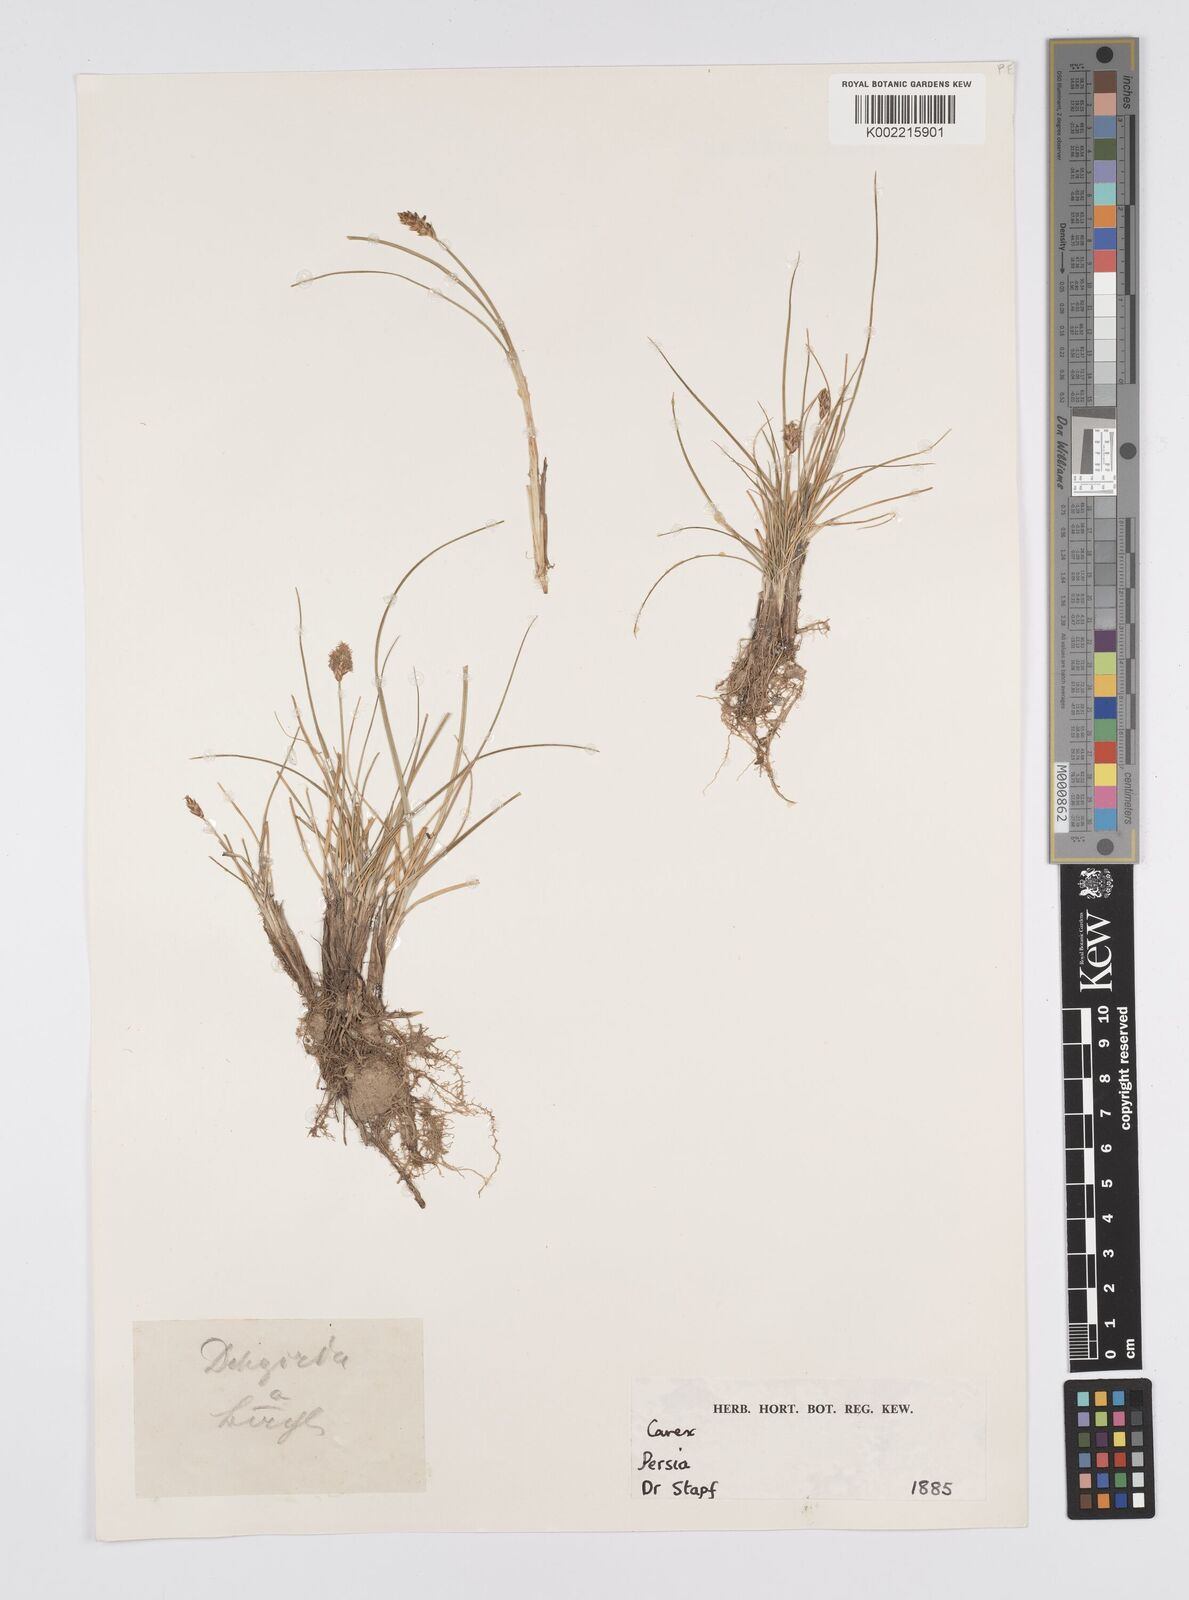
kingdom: Plantae
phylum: Tracheophyta
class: Liliopsida
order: Poales
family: Cyperaceae
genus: Carex
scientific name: Carex stenophylla
